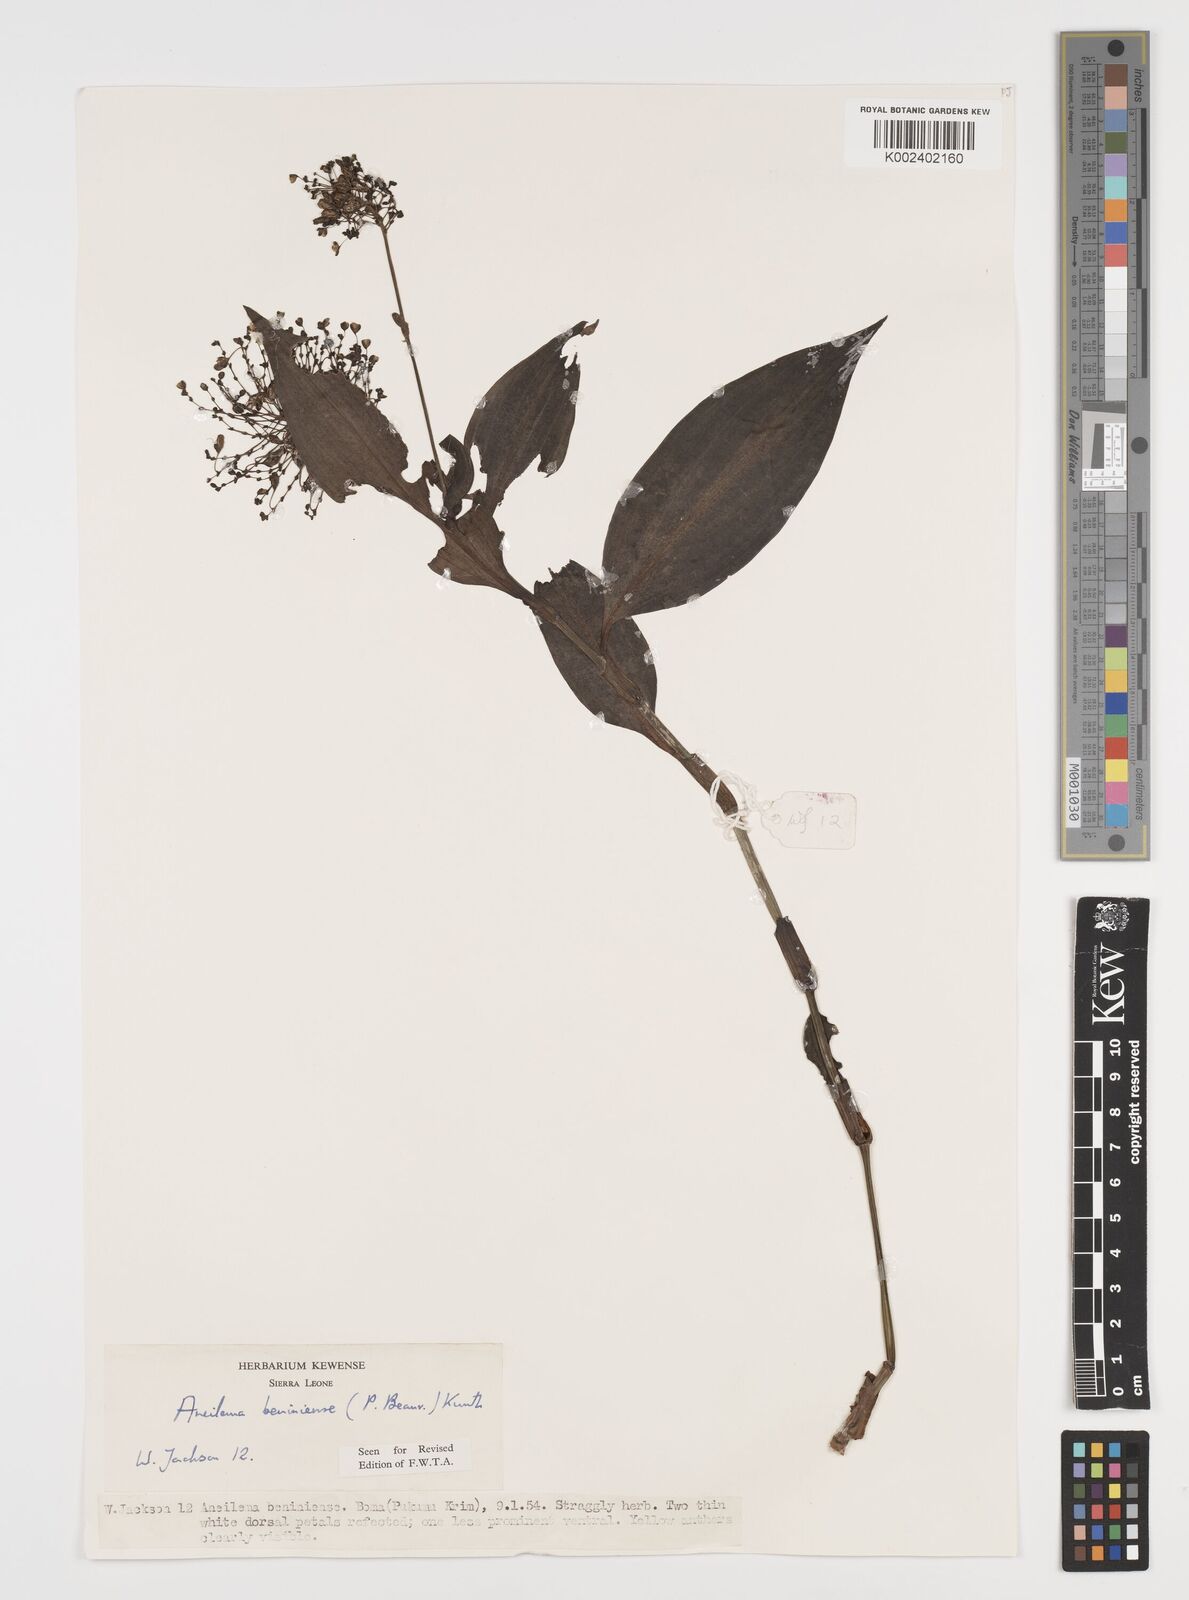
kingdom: Plantae
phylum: Tracheophyta
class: Liliopsida
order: Commelinales
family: Commelinaceae
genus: Aneilema
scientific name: Aneilema beniniense
